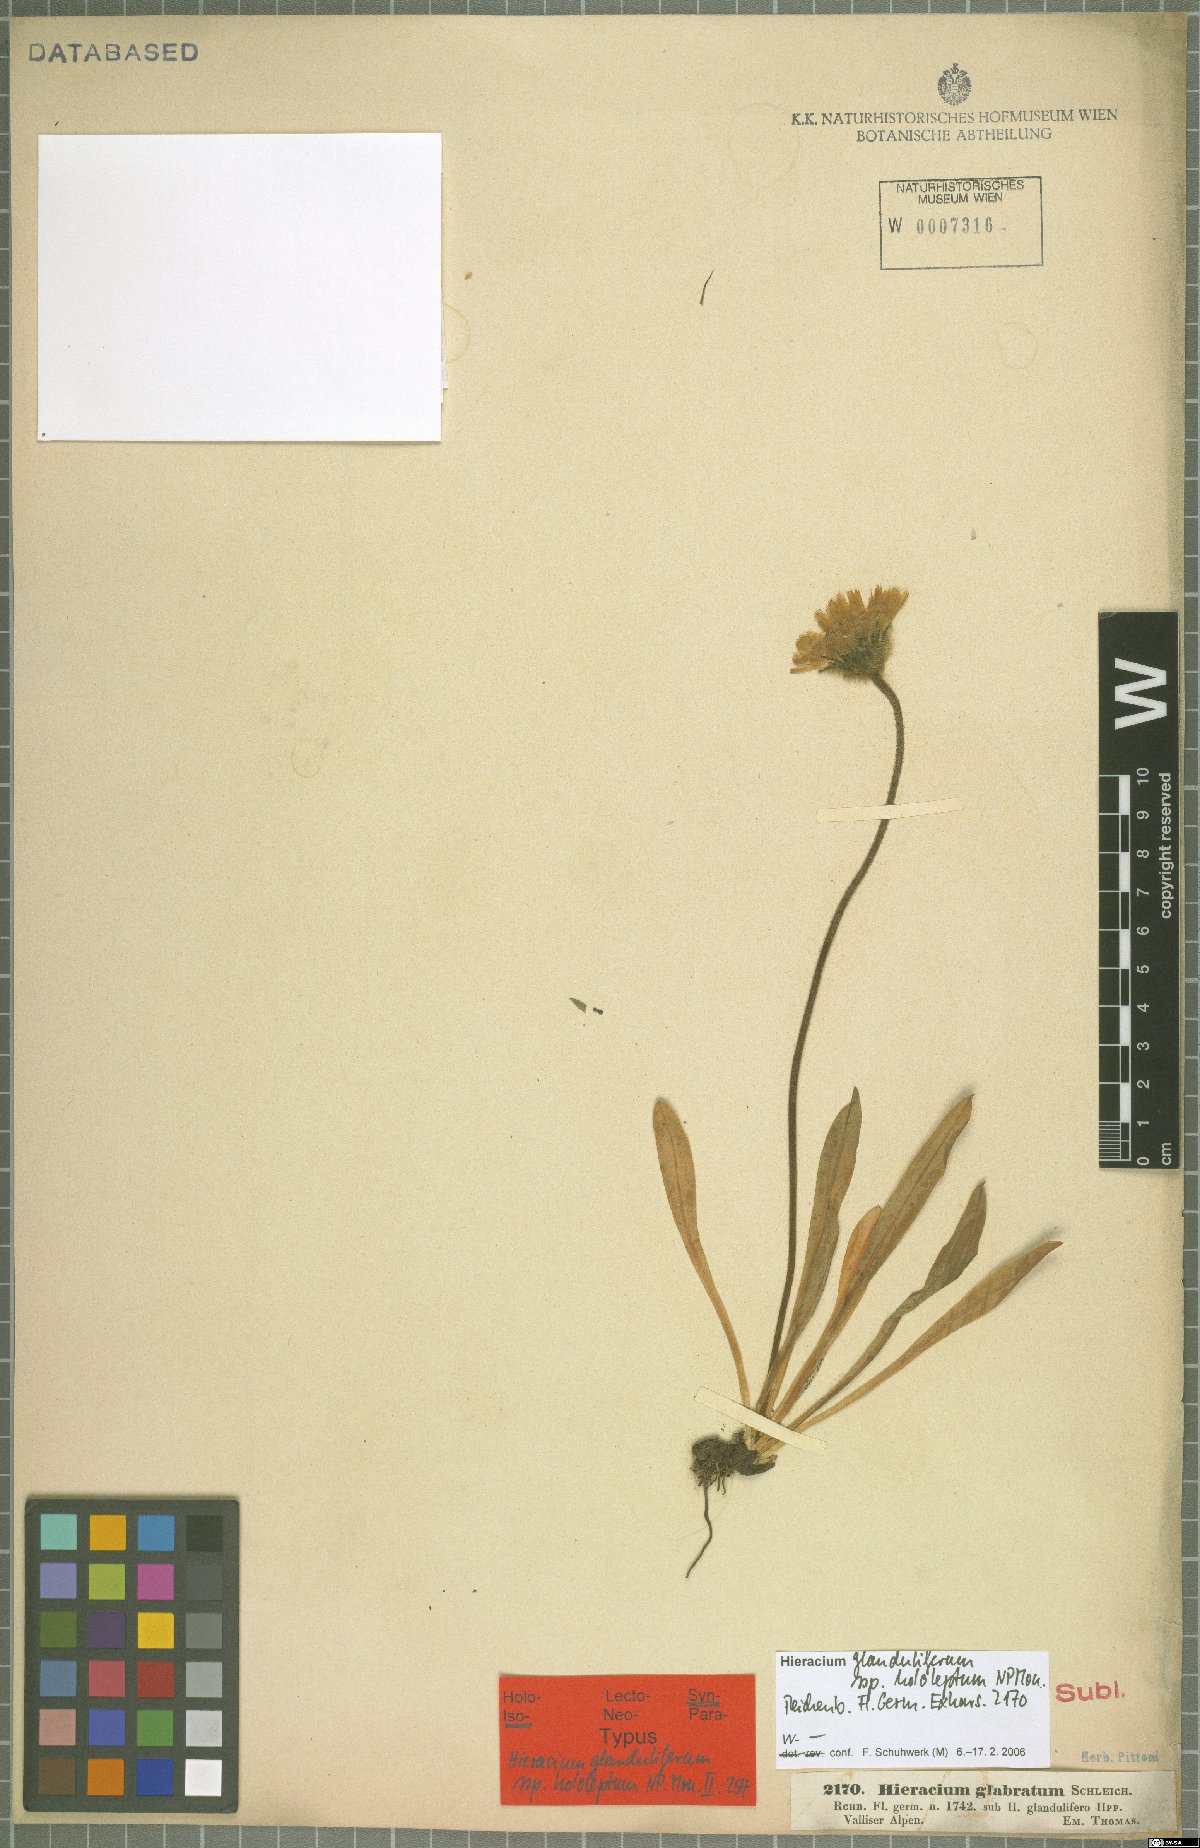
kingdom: Plantae
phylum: Tracheophyta
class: Magnoliopsida
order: Asterales
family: Asteraceae
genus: Hieracium
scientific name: Hieracium piliferum
